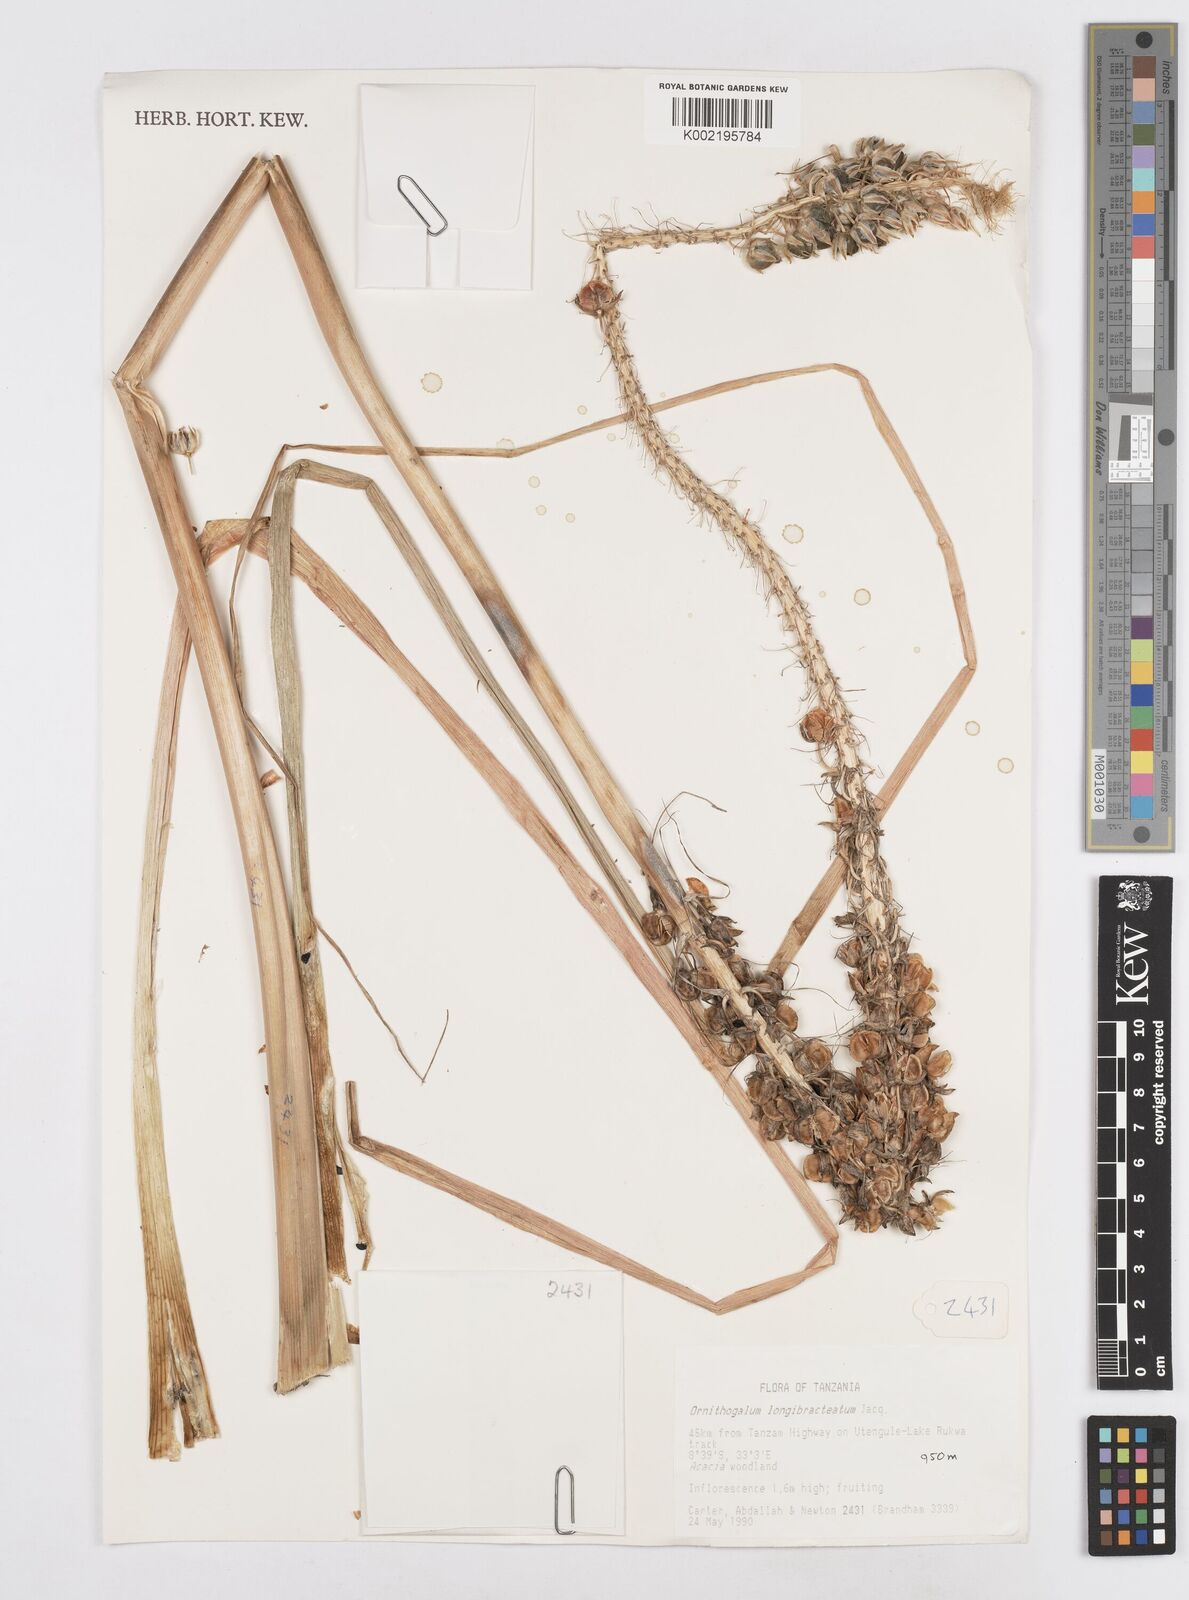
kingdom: Plantae
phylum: Tracheophyta
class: Liliopsida
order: Asparagales
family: Asparagaceae
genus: Albuca
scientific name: Albuca bracteata
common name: Sea-onion
